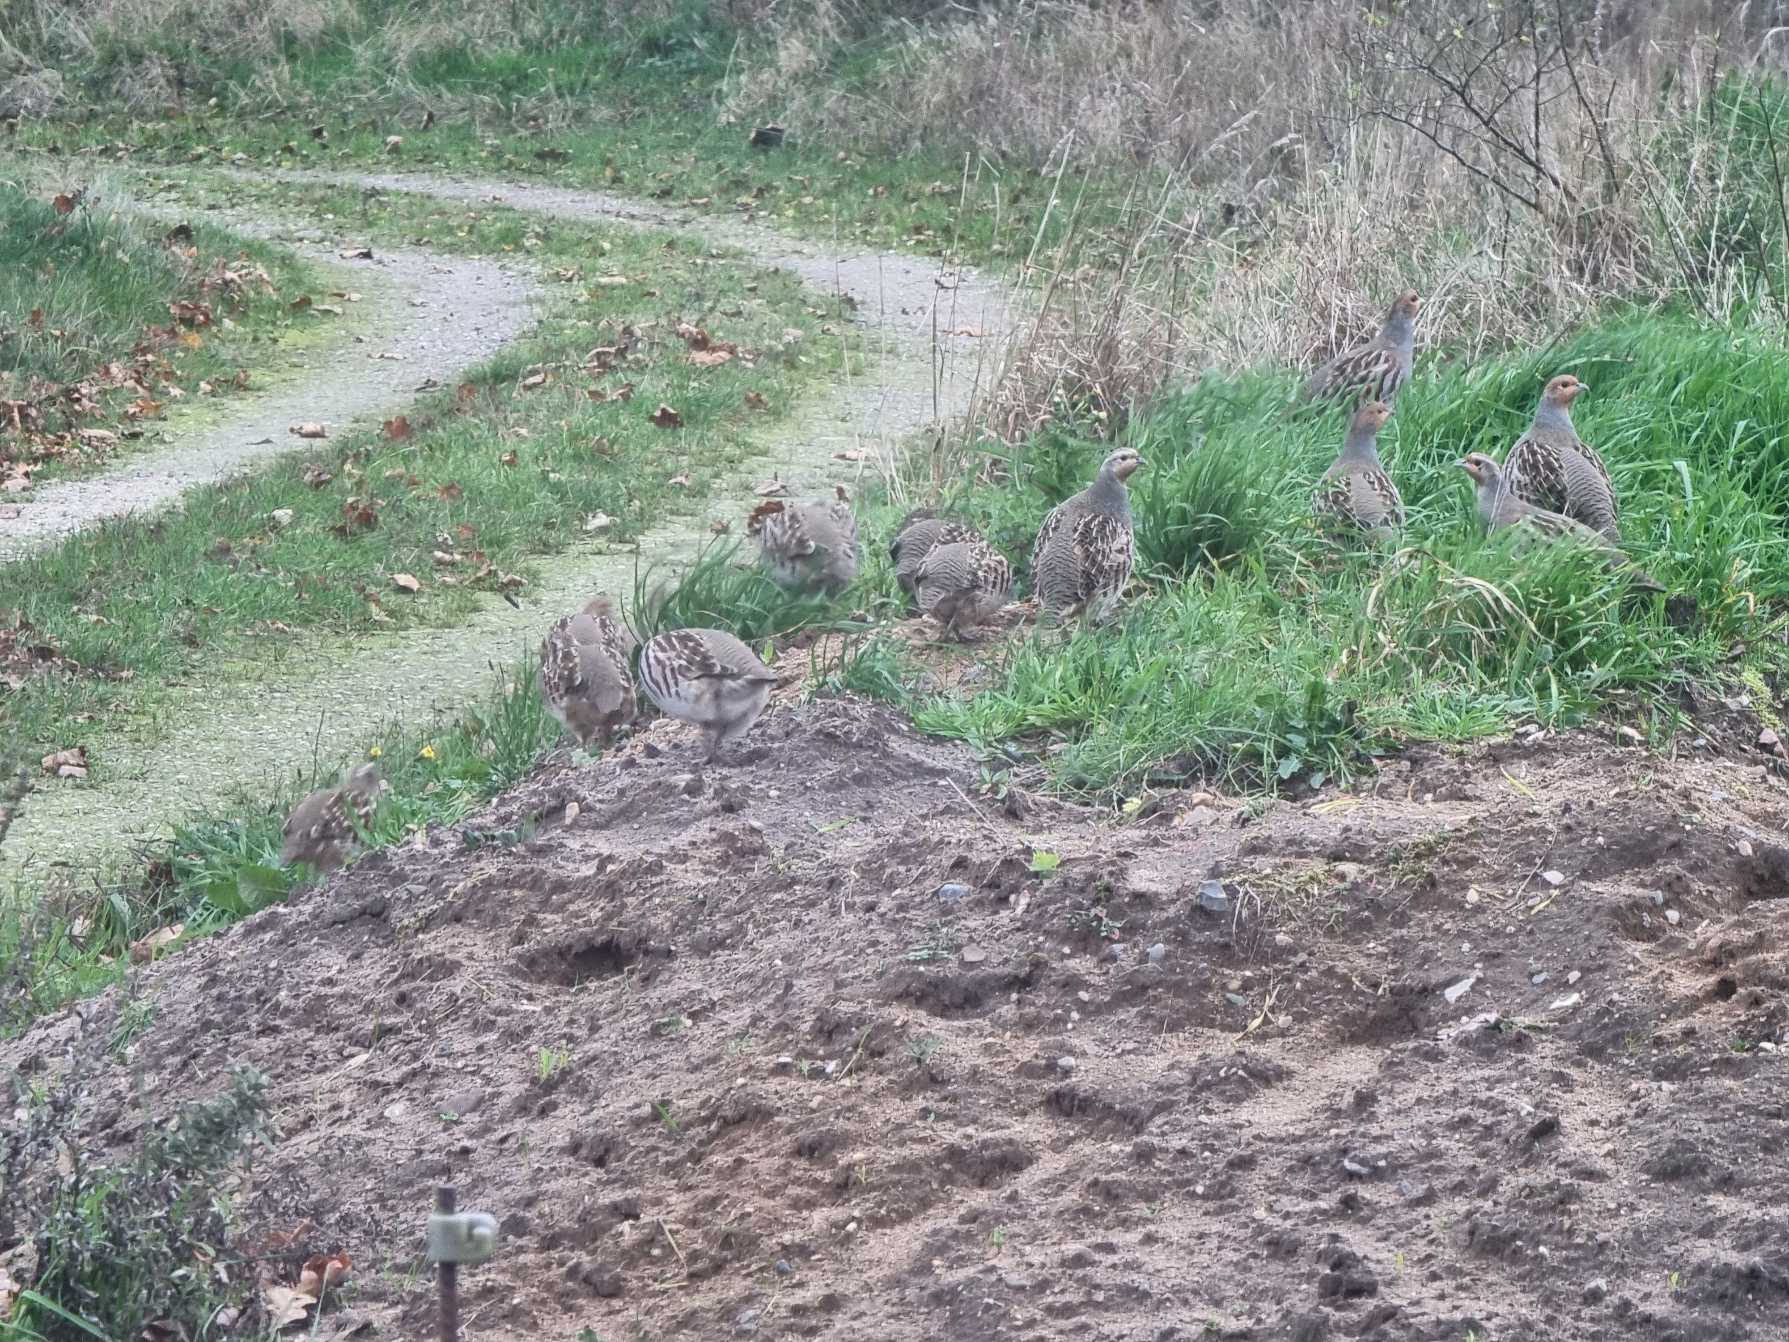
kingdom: Animalia
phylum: Chordata
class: Aves
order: Galliformes
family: Phasianidae
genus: Perdix
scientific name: Perdix perdix
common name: Agerhøne
